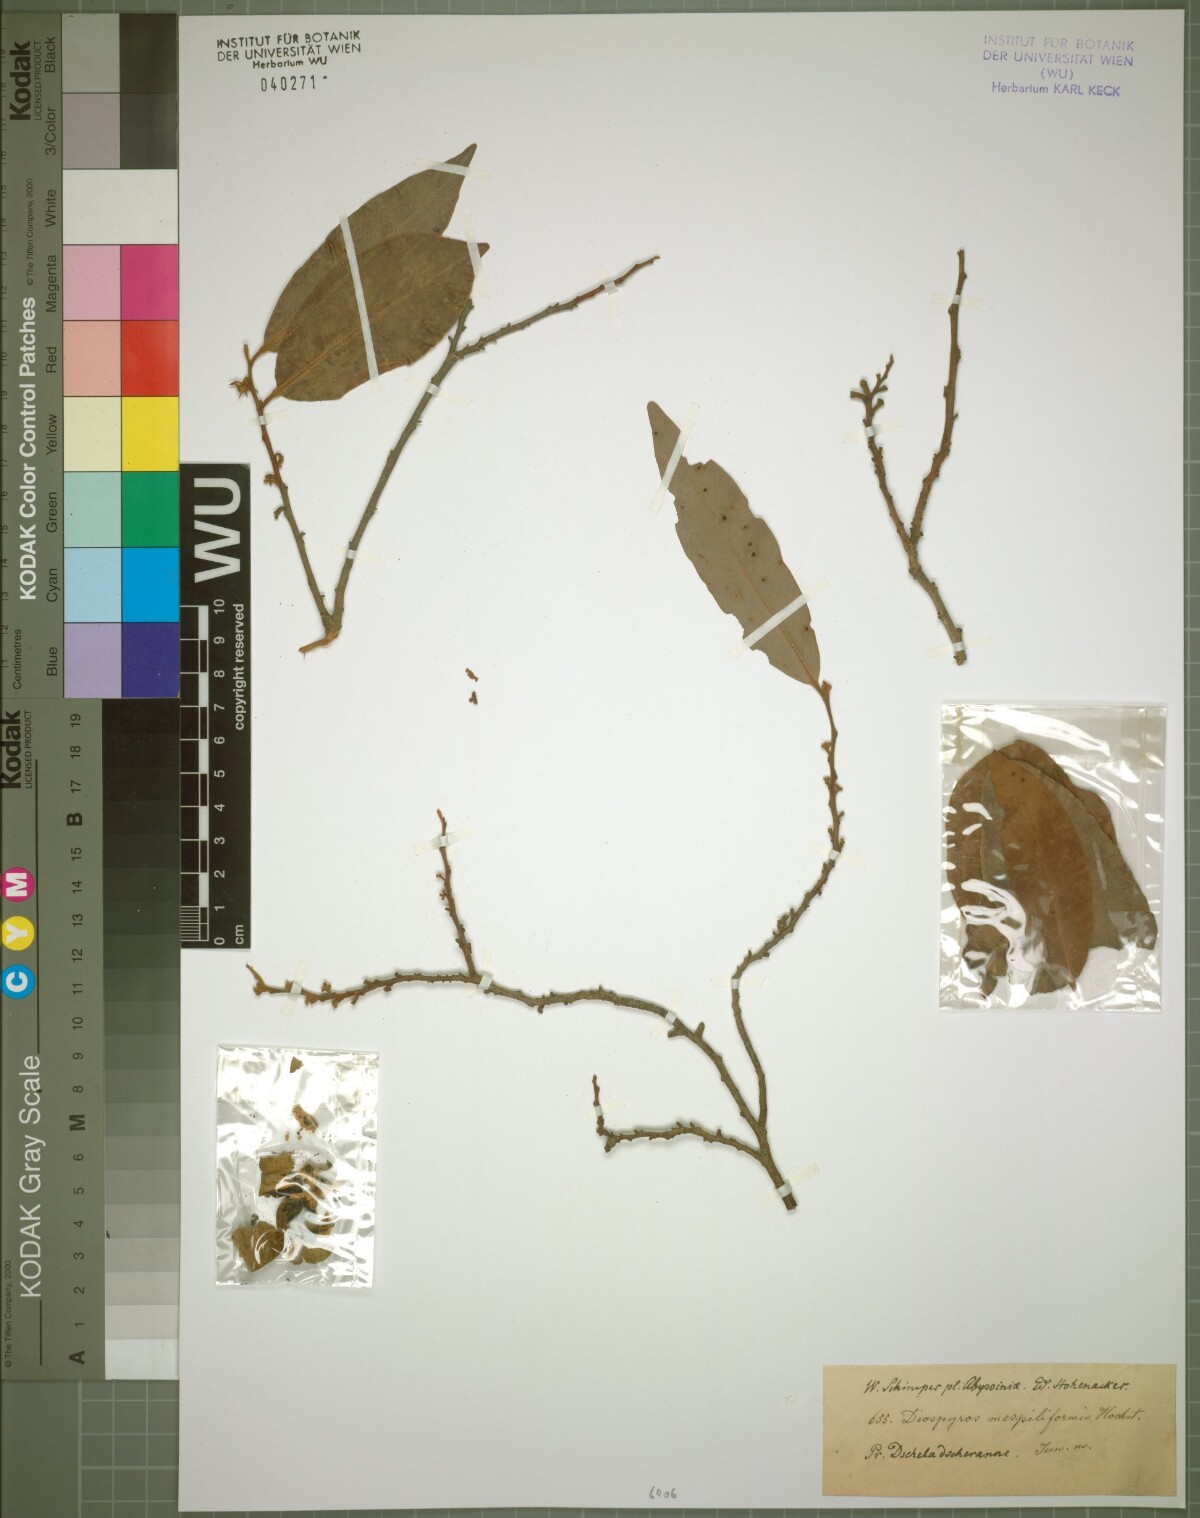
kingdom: Plantae
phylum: Tracheophyta
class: Magnoliopsida
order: Ericales
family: Ebenaceae
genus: Diospyros
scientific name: Diospyros mespiliformis
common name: Ebony diospyros
